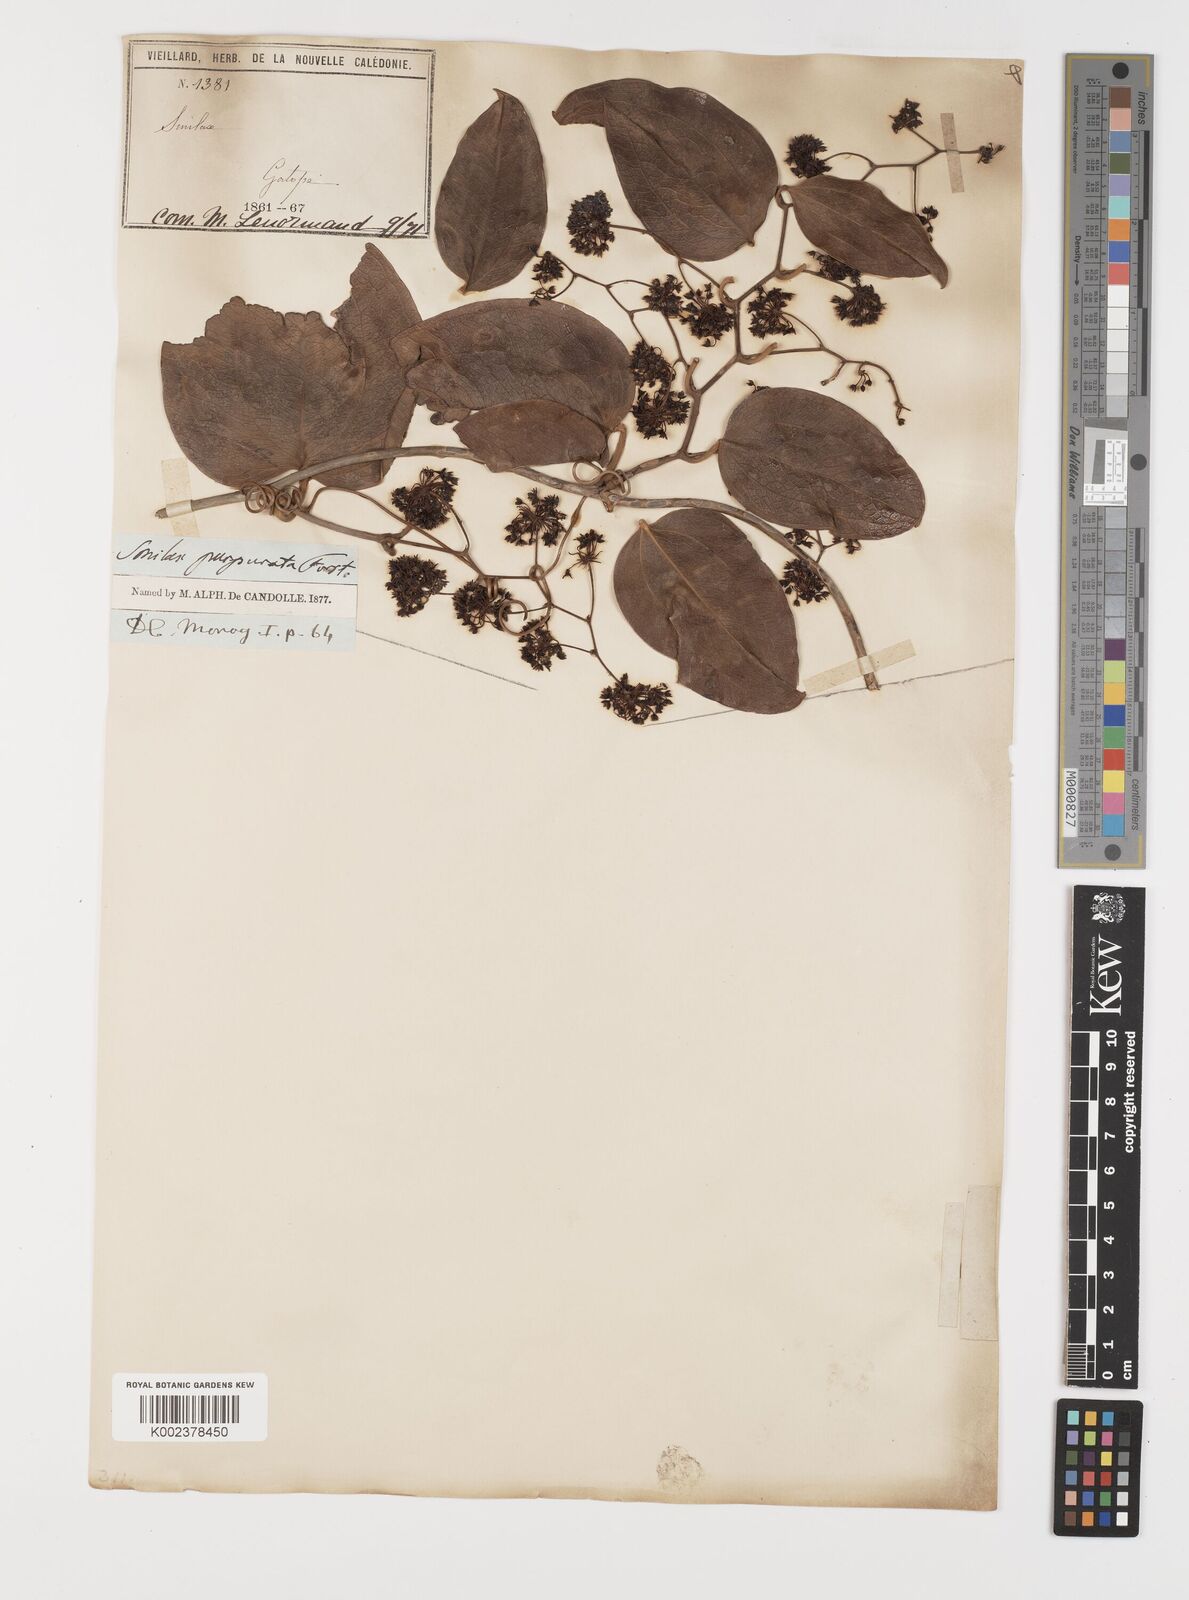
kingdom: Plantae
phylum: Tracheophyta
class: Liliopsida
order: Liliales
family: Smilacaceae
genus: Smilax
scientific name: Smilax purpurata
